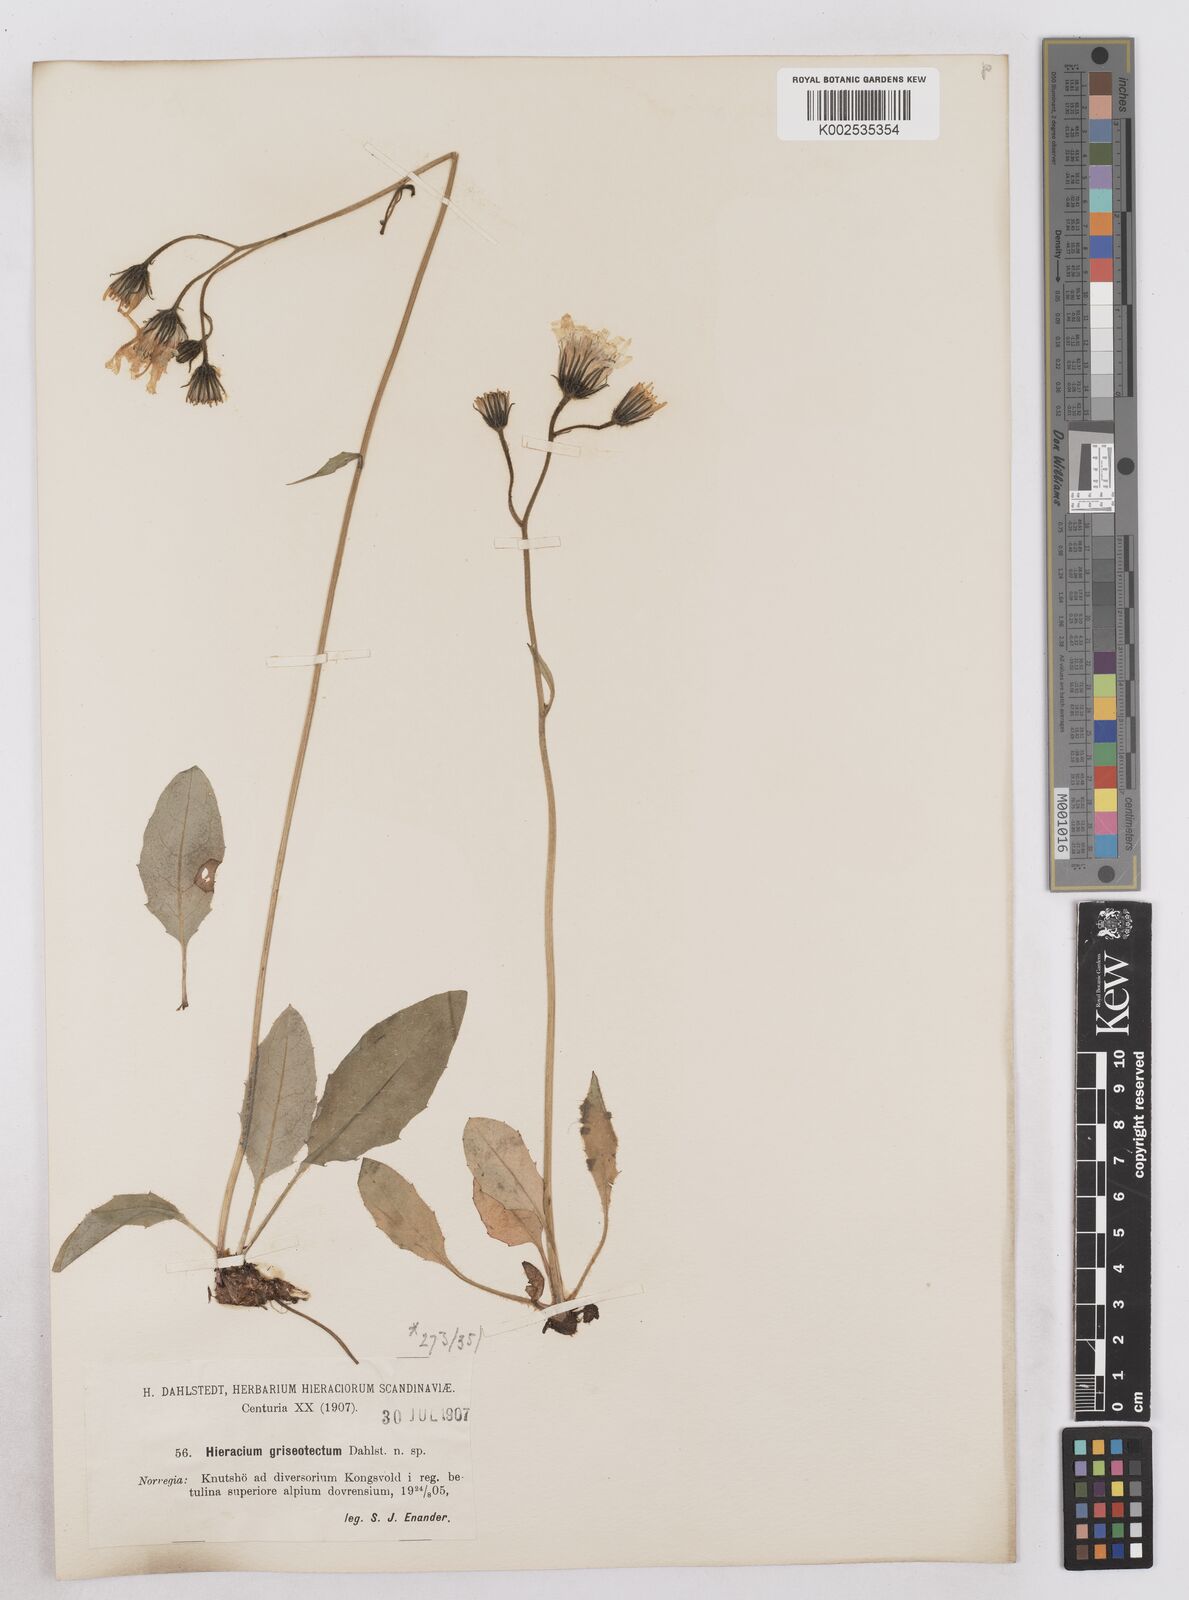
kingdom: Plantae
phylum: Tracheophyta
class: Magnoliopsida
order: Asterales
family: Asteraceae
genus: Hieracium
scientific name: Hieracium conspurcans
